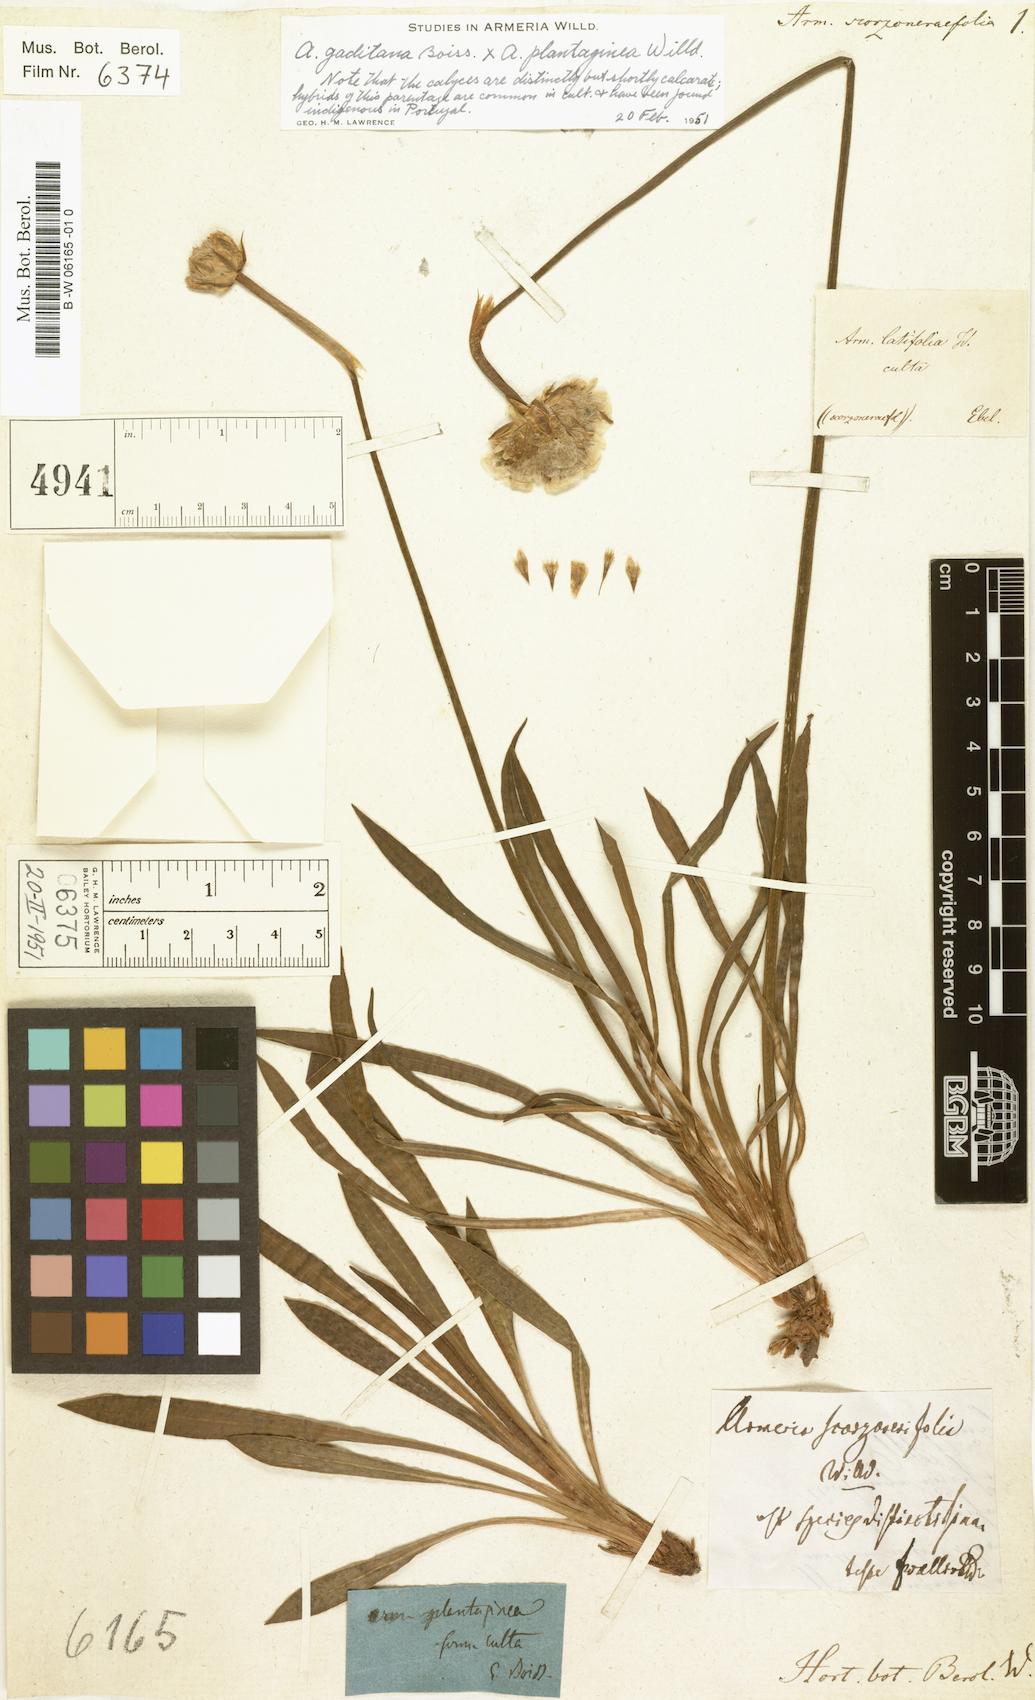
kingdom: Plantae
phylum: Tracheophyta
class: Magnoliopsida
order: Caryophyllales
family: Plumbaginaceae
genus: Armeria
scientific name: Armeria rumelica
